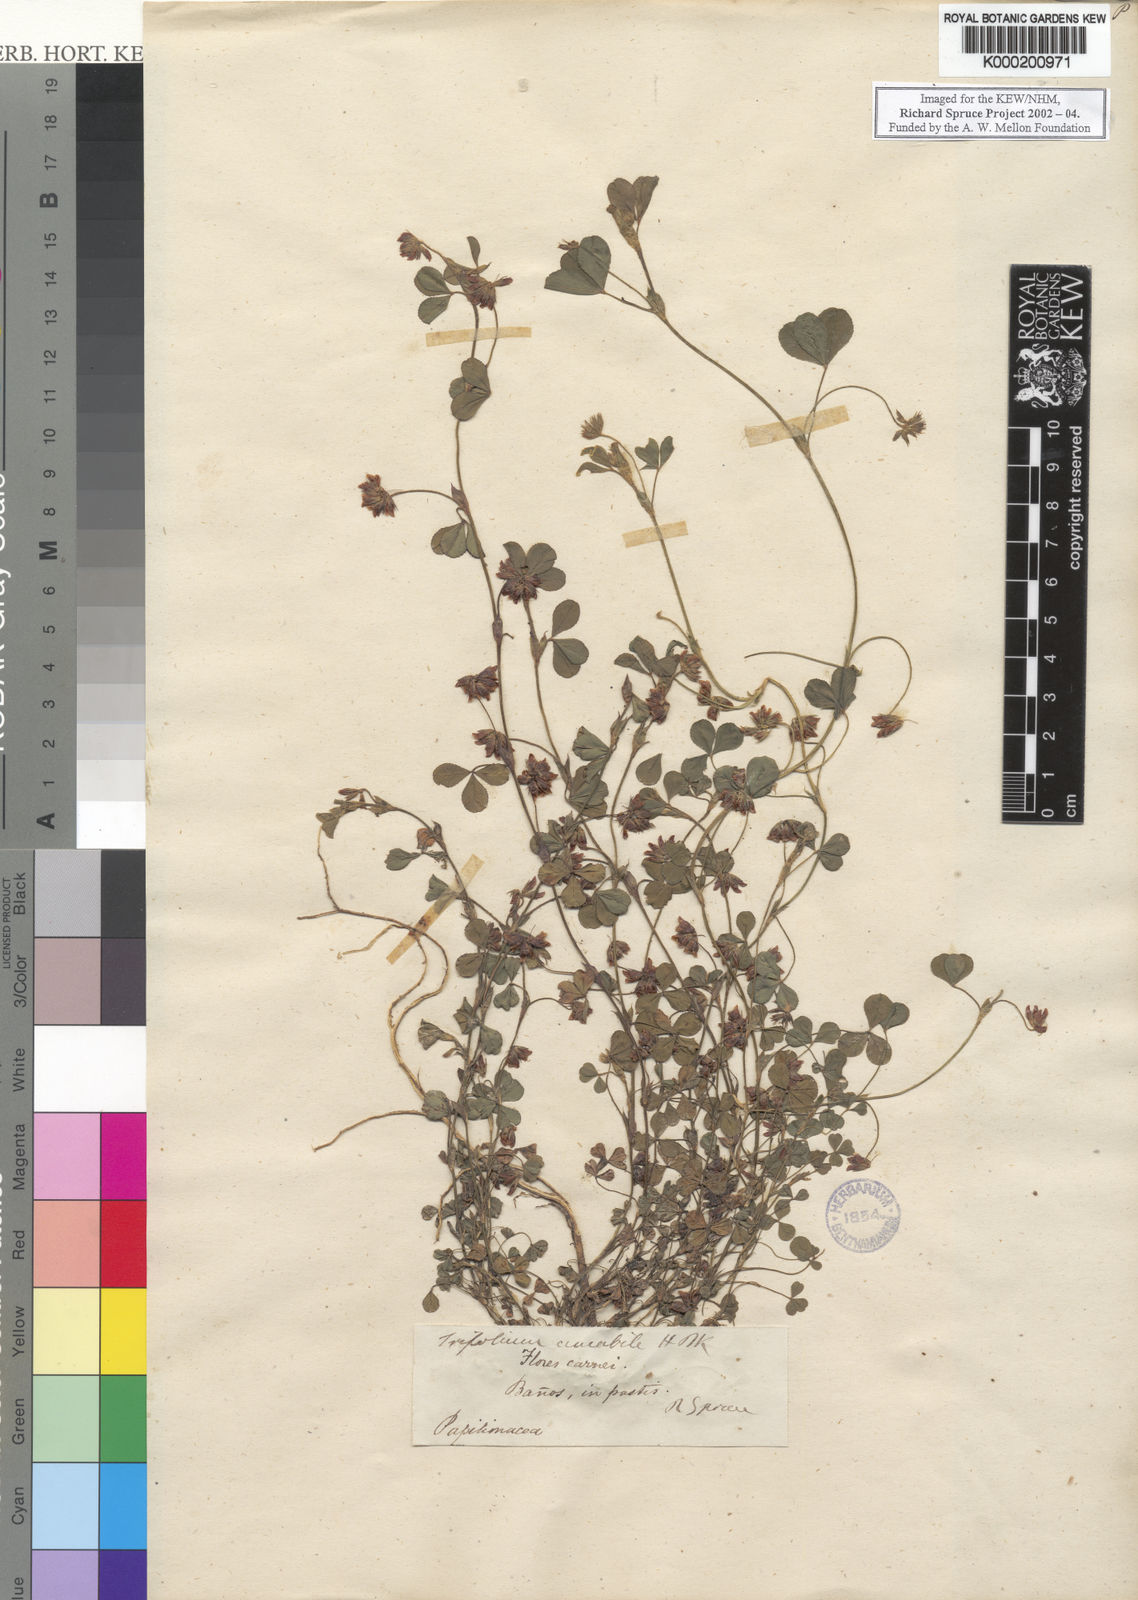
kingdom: Plantae
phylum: Tracheophyta
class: Magnoliopsida
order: Fabales
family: Fabaceae
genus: Trifolium
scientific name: Trifolium amabile
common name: Aztec clover
